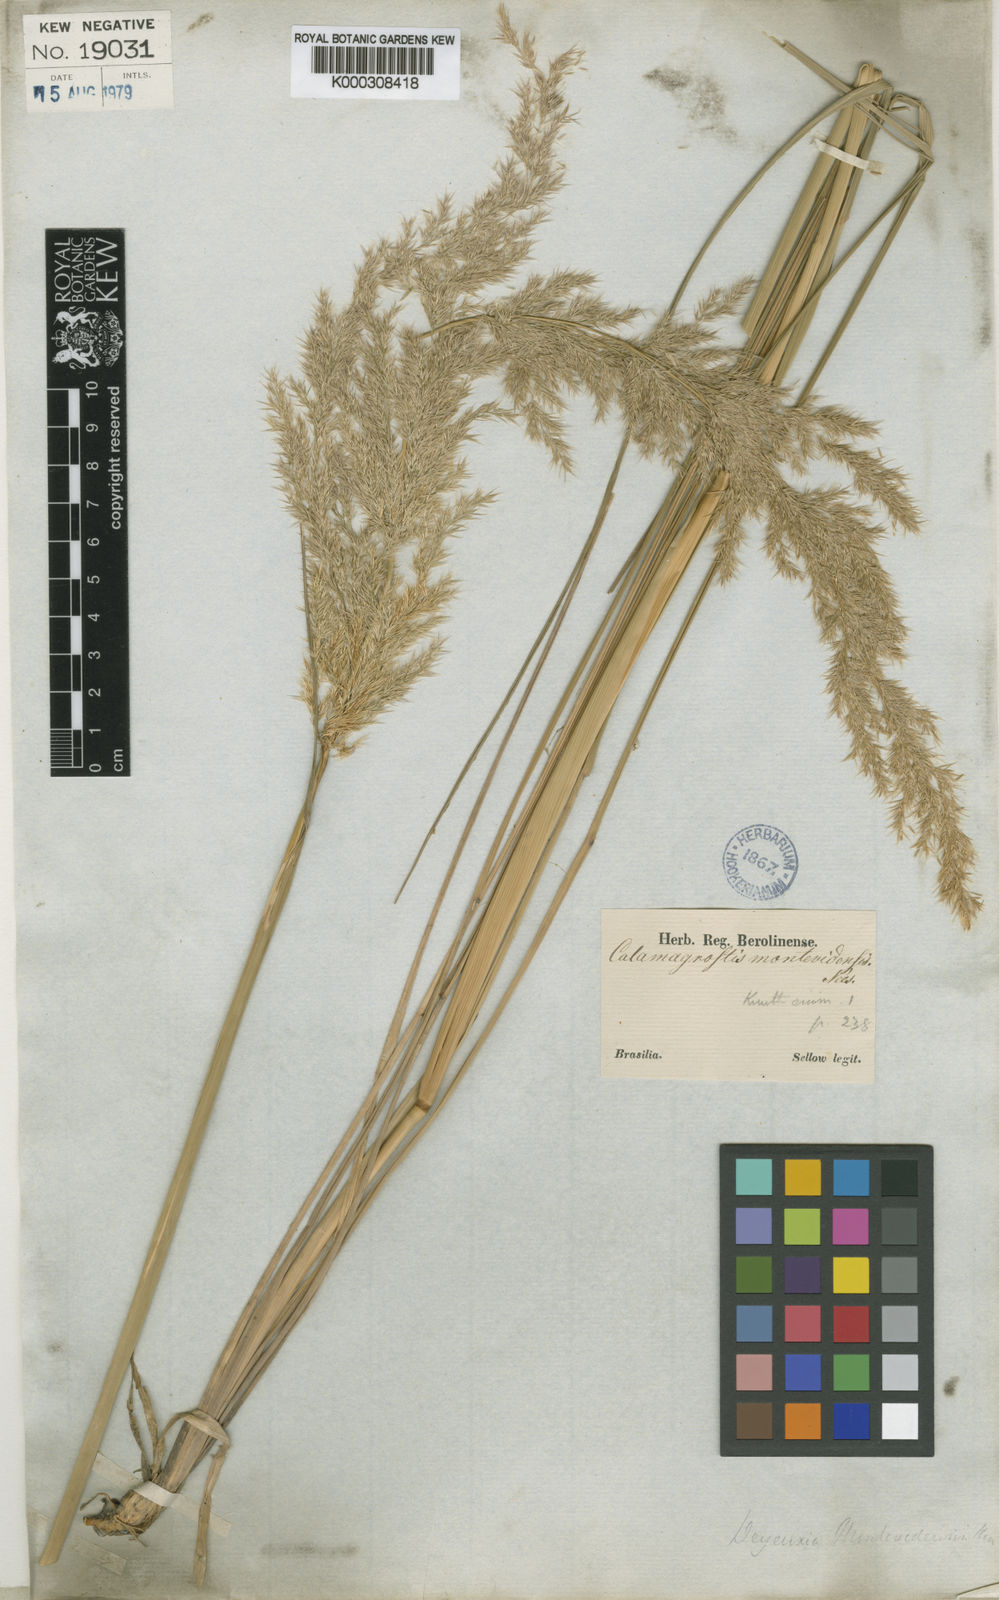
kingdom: Plantae
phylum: Tracheophyta
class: Liliopsida
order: Poales
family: Poaceae
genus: Cinnagrostis
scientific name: Cinnagrostis viridiflavescens
